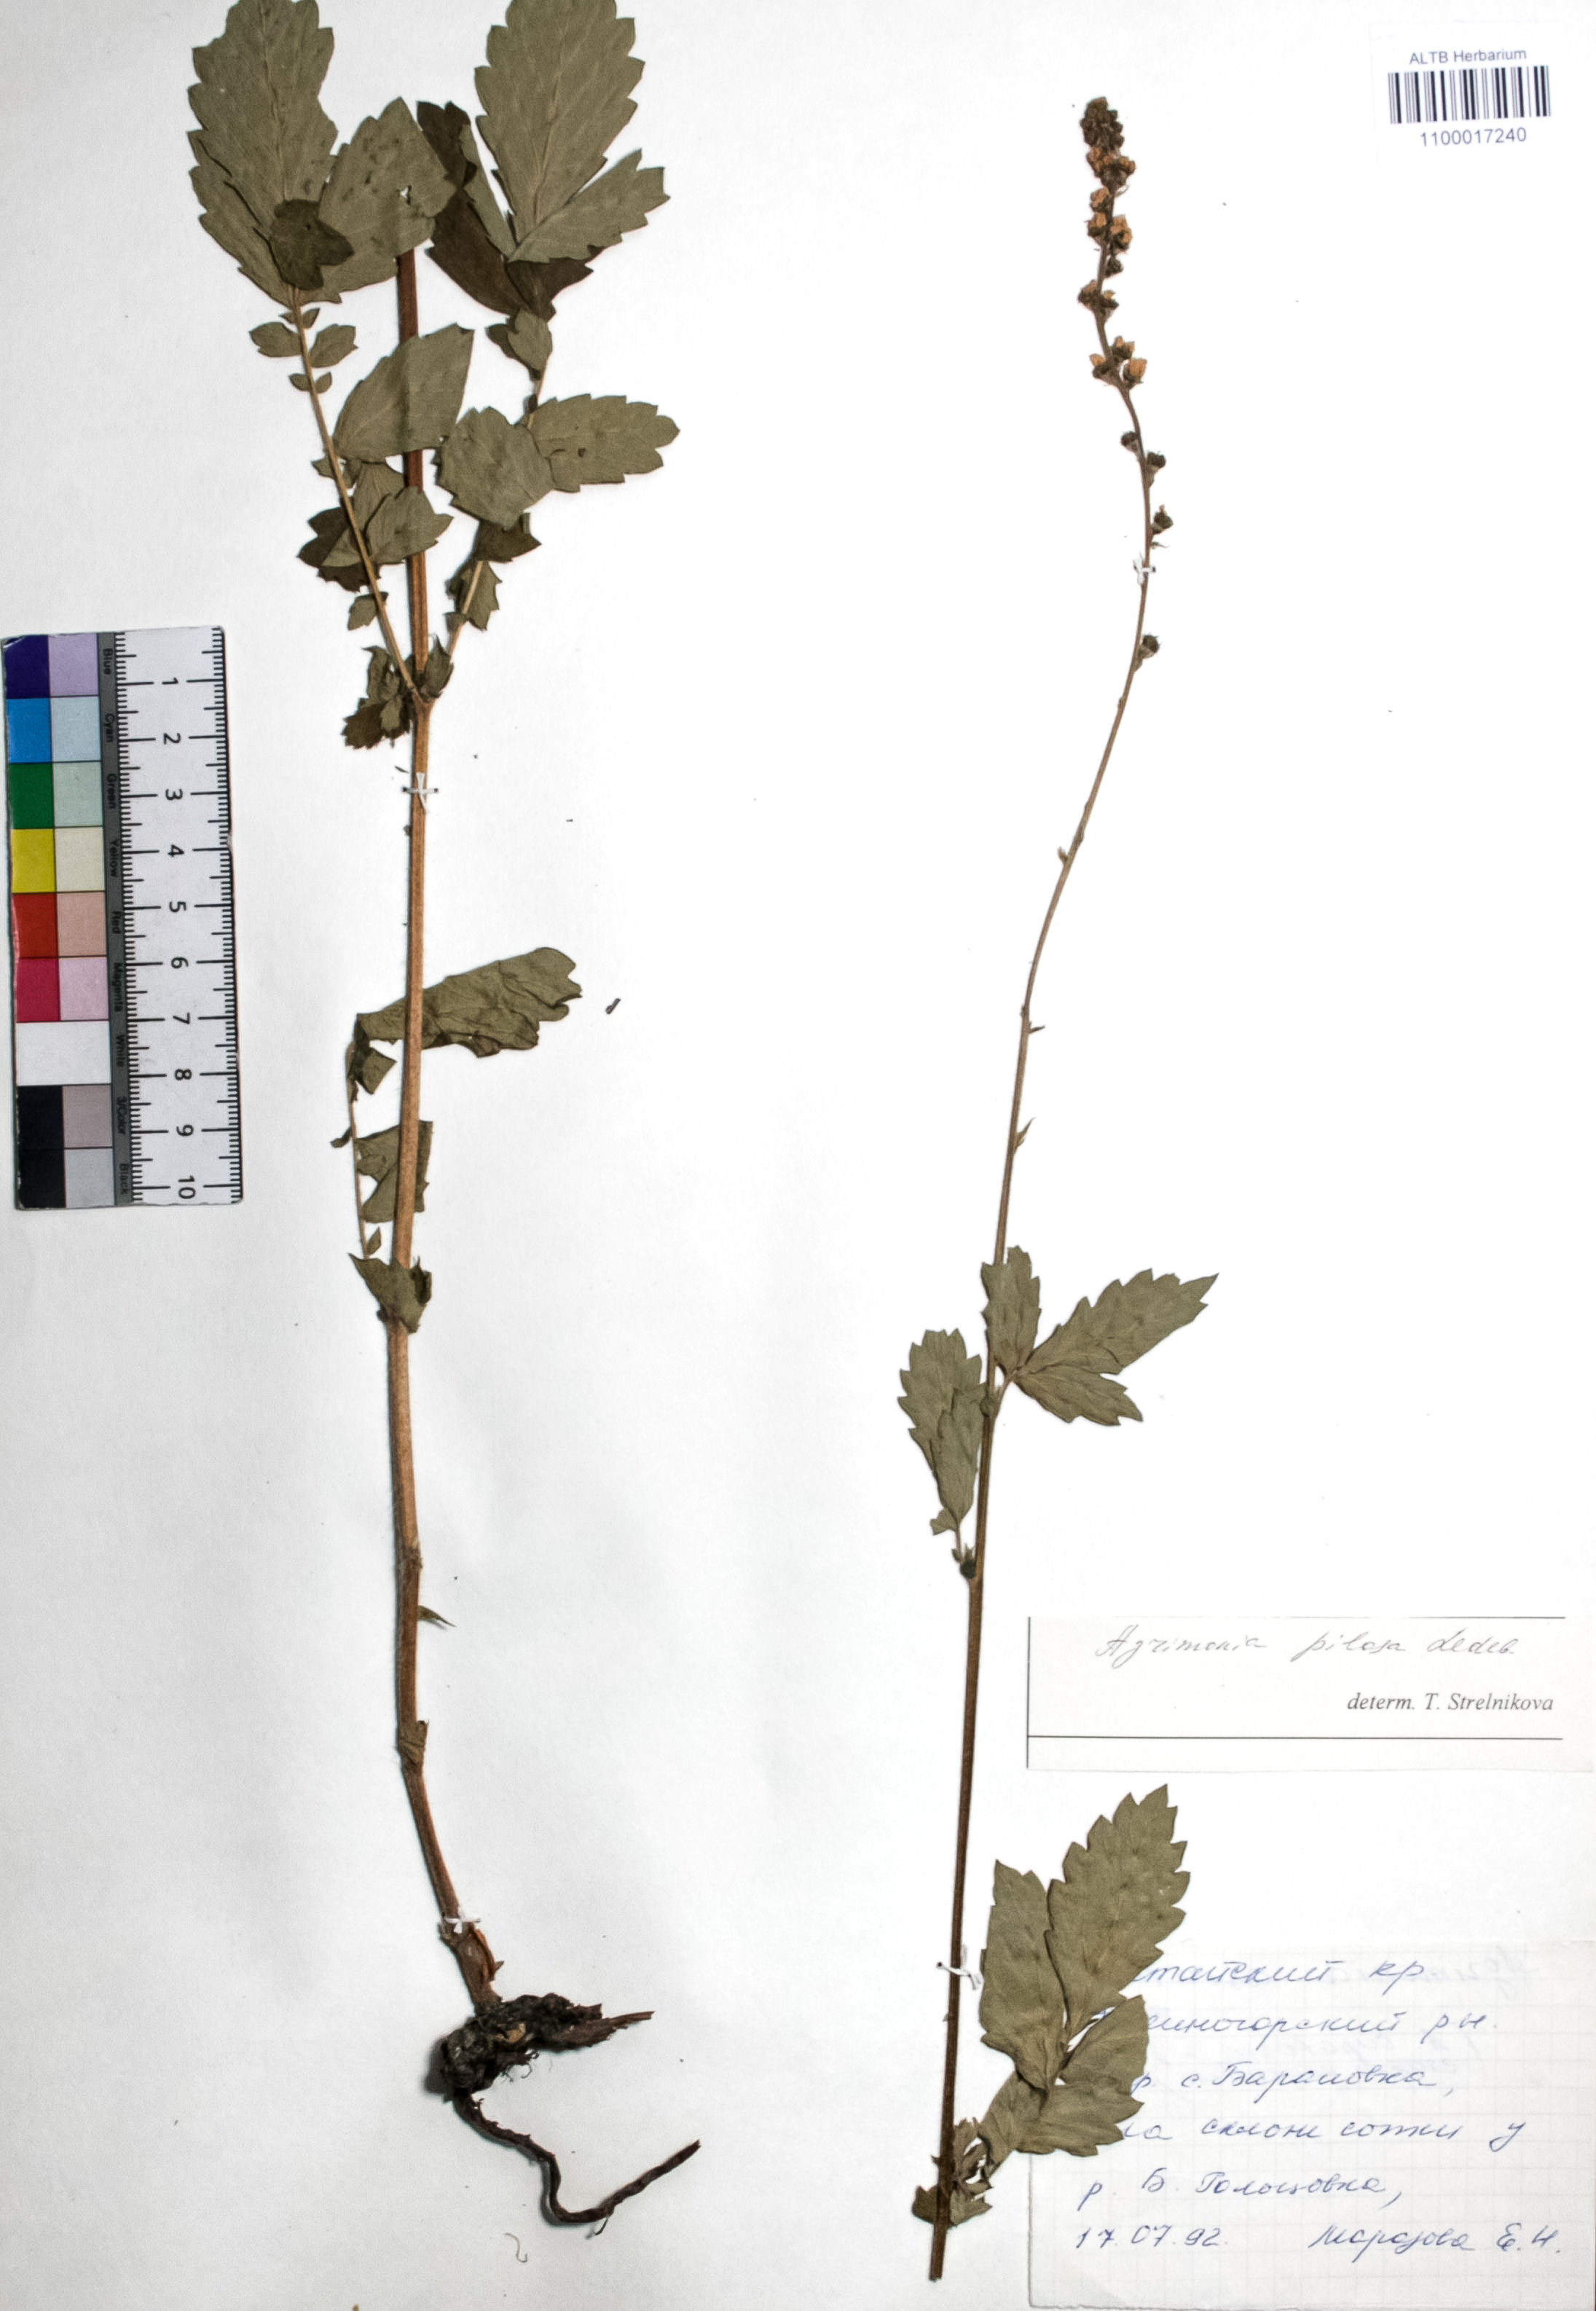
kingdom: Plantae
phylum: Tracheophyta
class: Magnoliopsida
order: Rosales
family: Rosaceae
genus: Agrimonia
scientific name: Agrimonia pilosa
